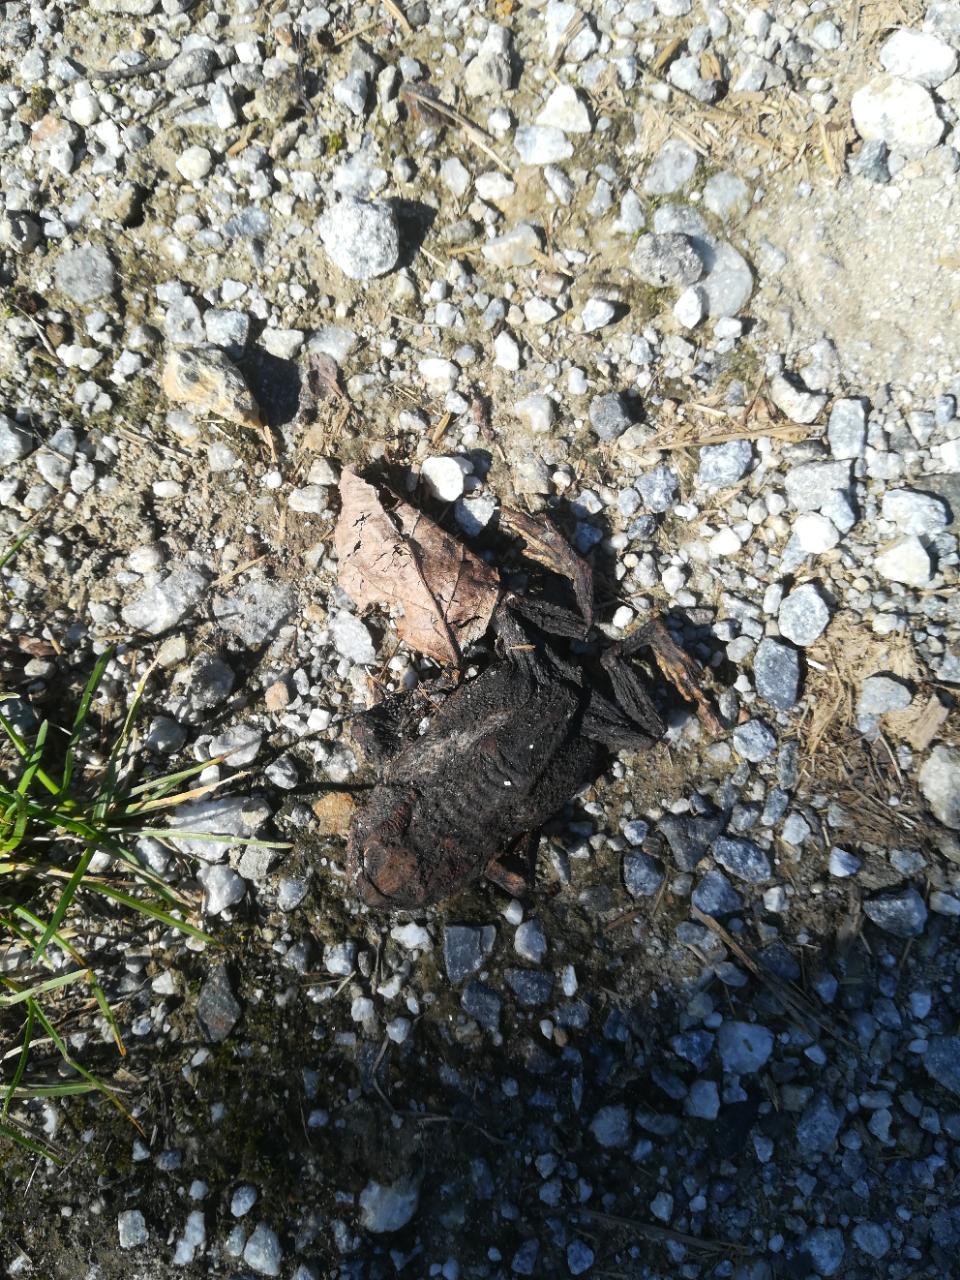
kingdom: Animalia
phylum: Chordata
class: Amphibia
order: Anura
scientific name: Anura
